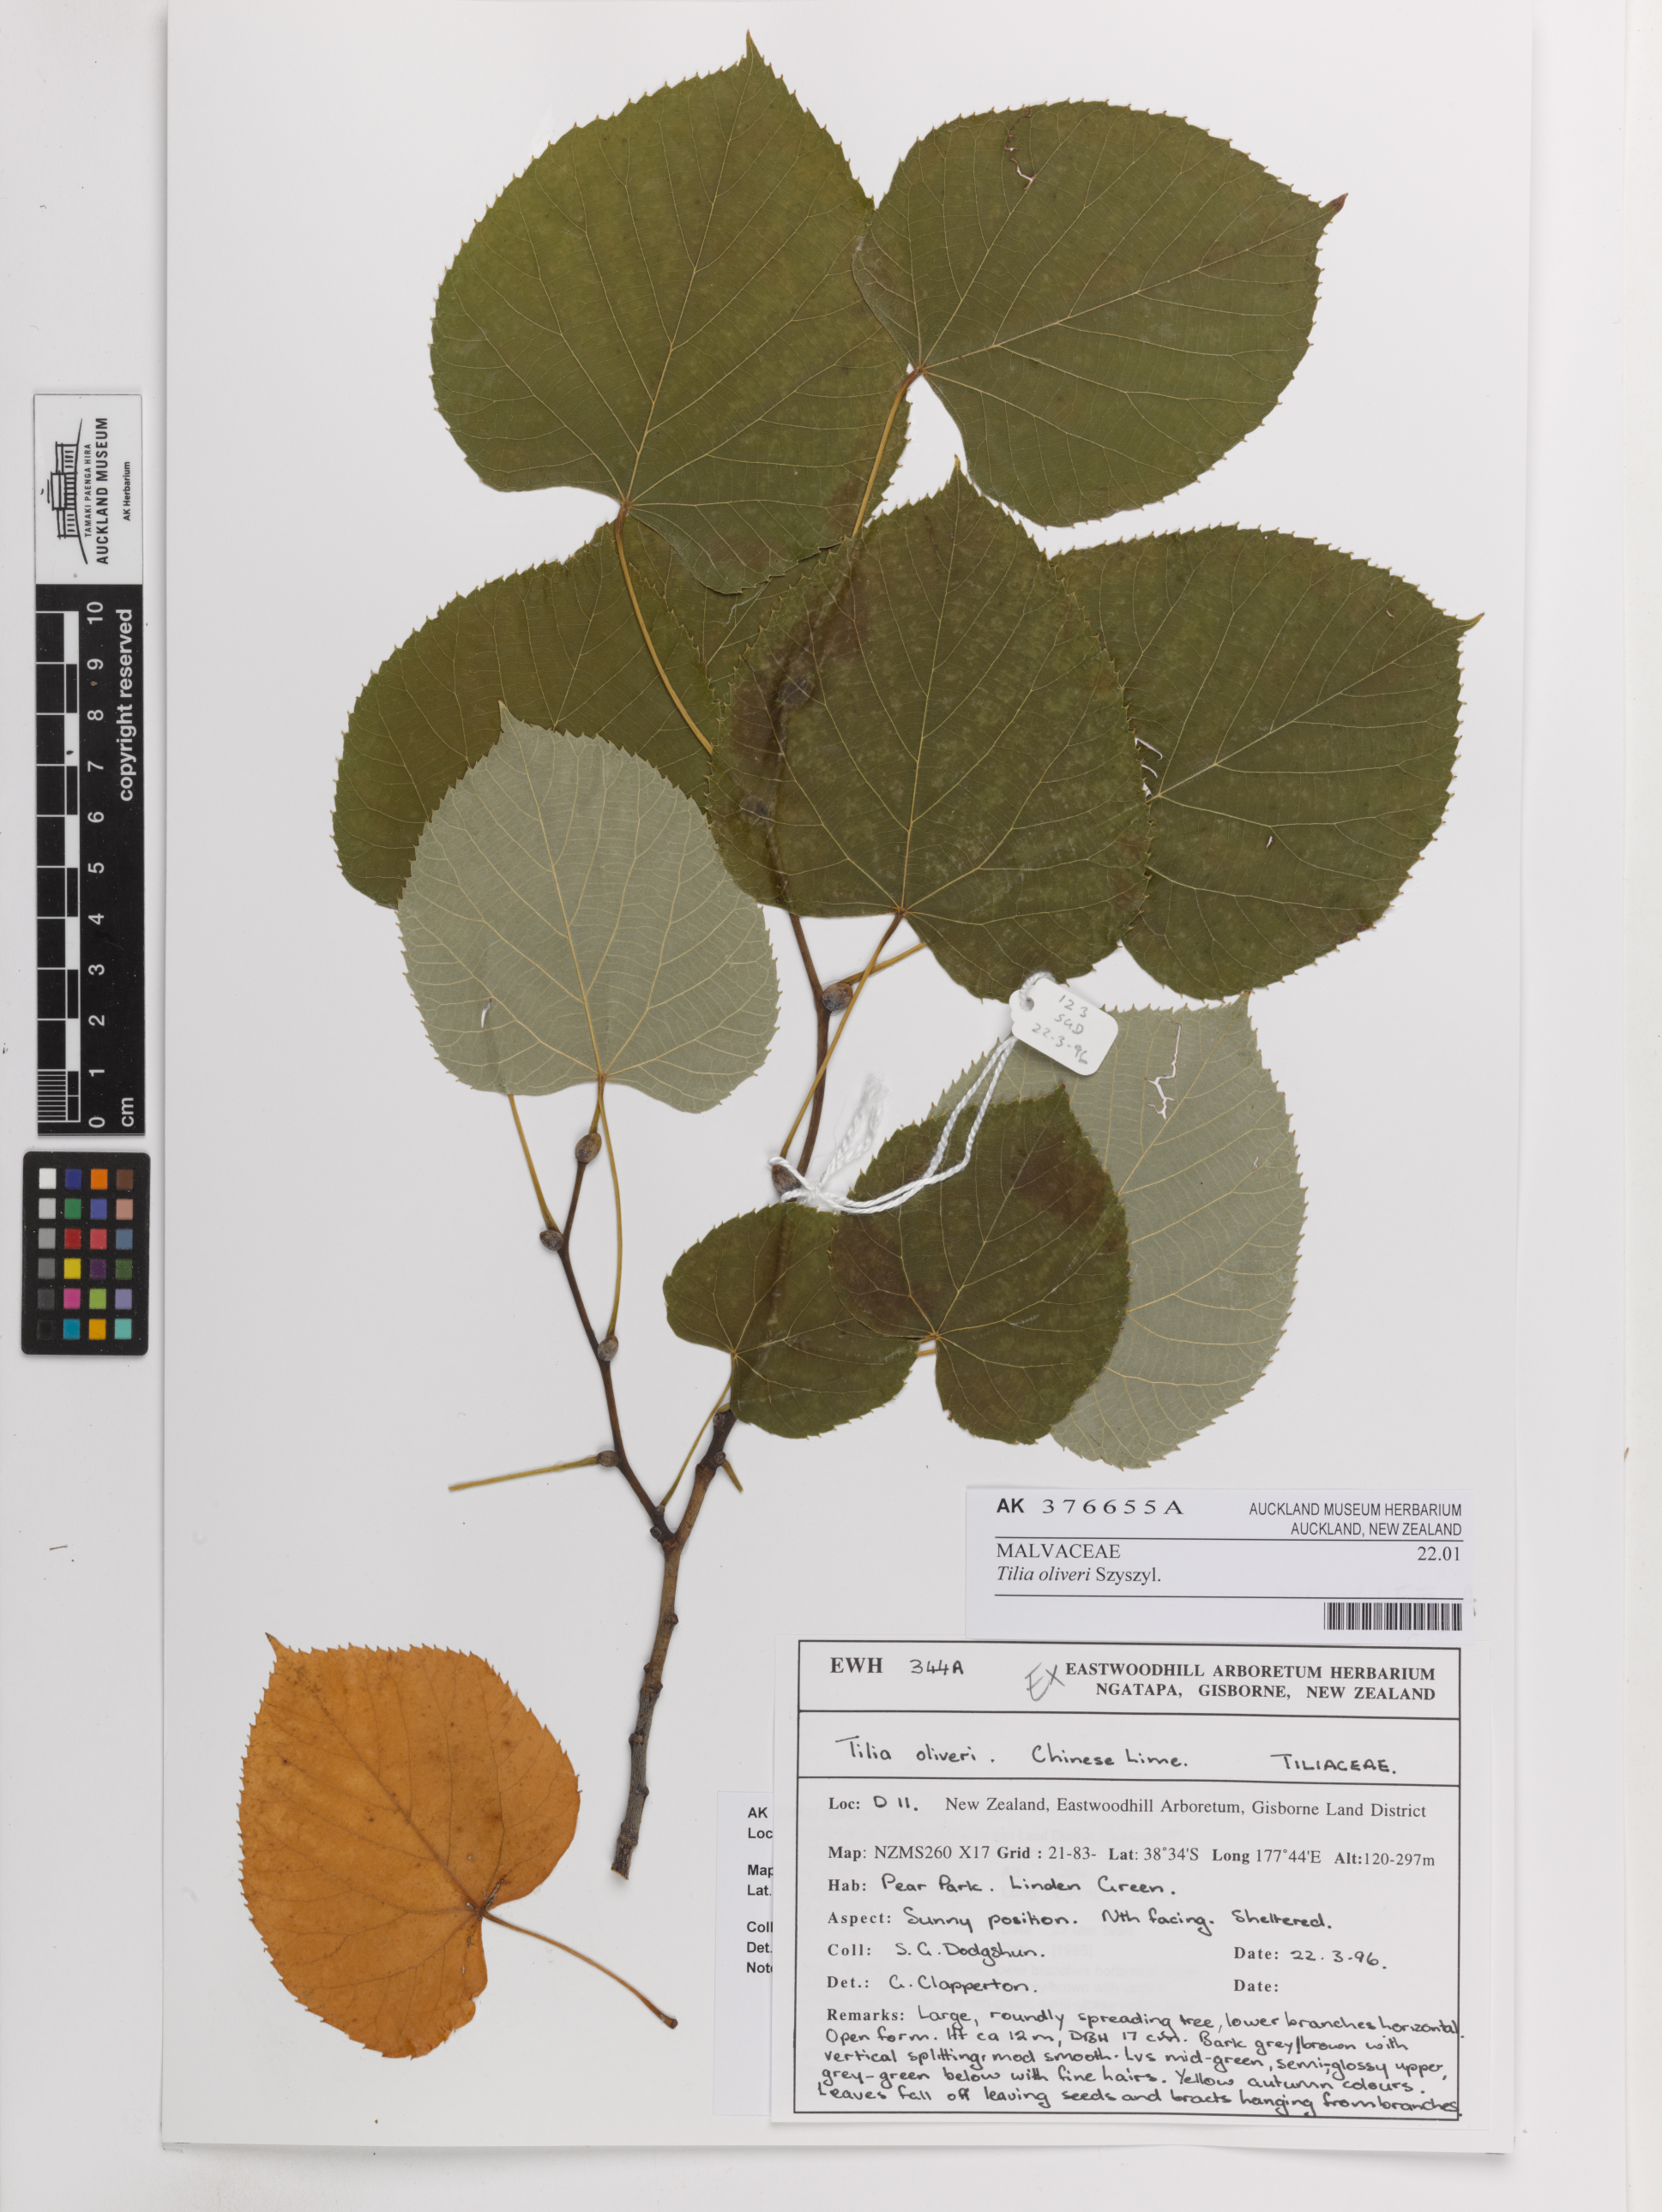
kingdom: Plantae
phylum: Tracheophyta
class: Magnoliopsida
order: Malvales
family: Malvaceae
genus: Tilia
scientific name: Tilia oliveri
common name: Oliver's lime
